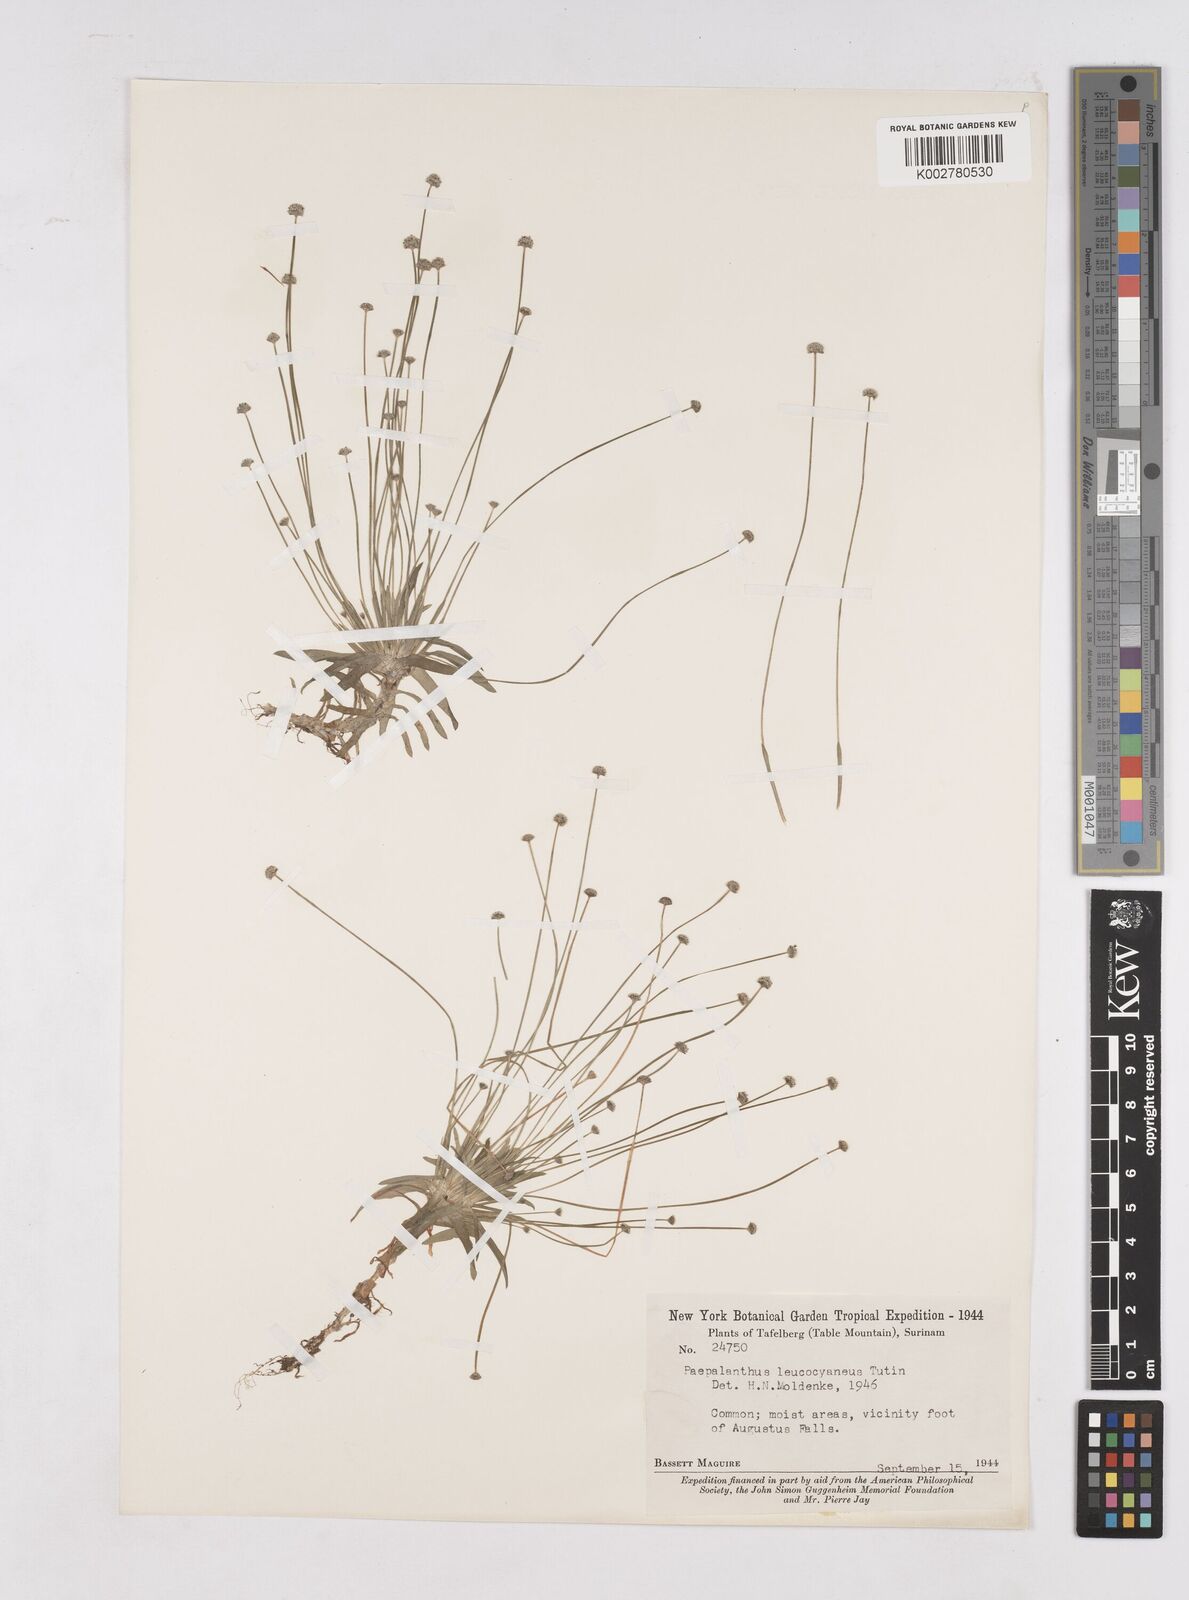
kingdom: Plantae
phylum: Tracheophyta
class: Liliopsida
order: Poales
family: Eriocaulaceae
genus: Paepalanthus
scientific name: Paepalanthus oyapockensis
